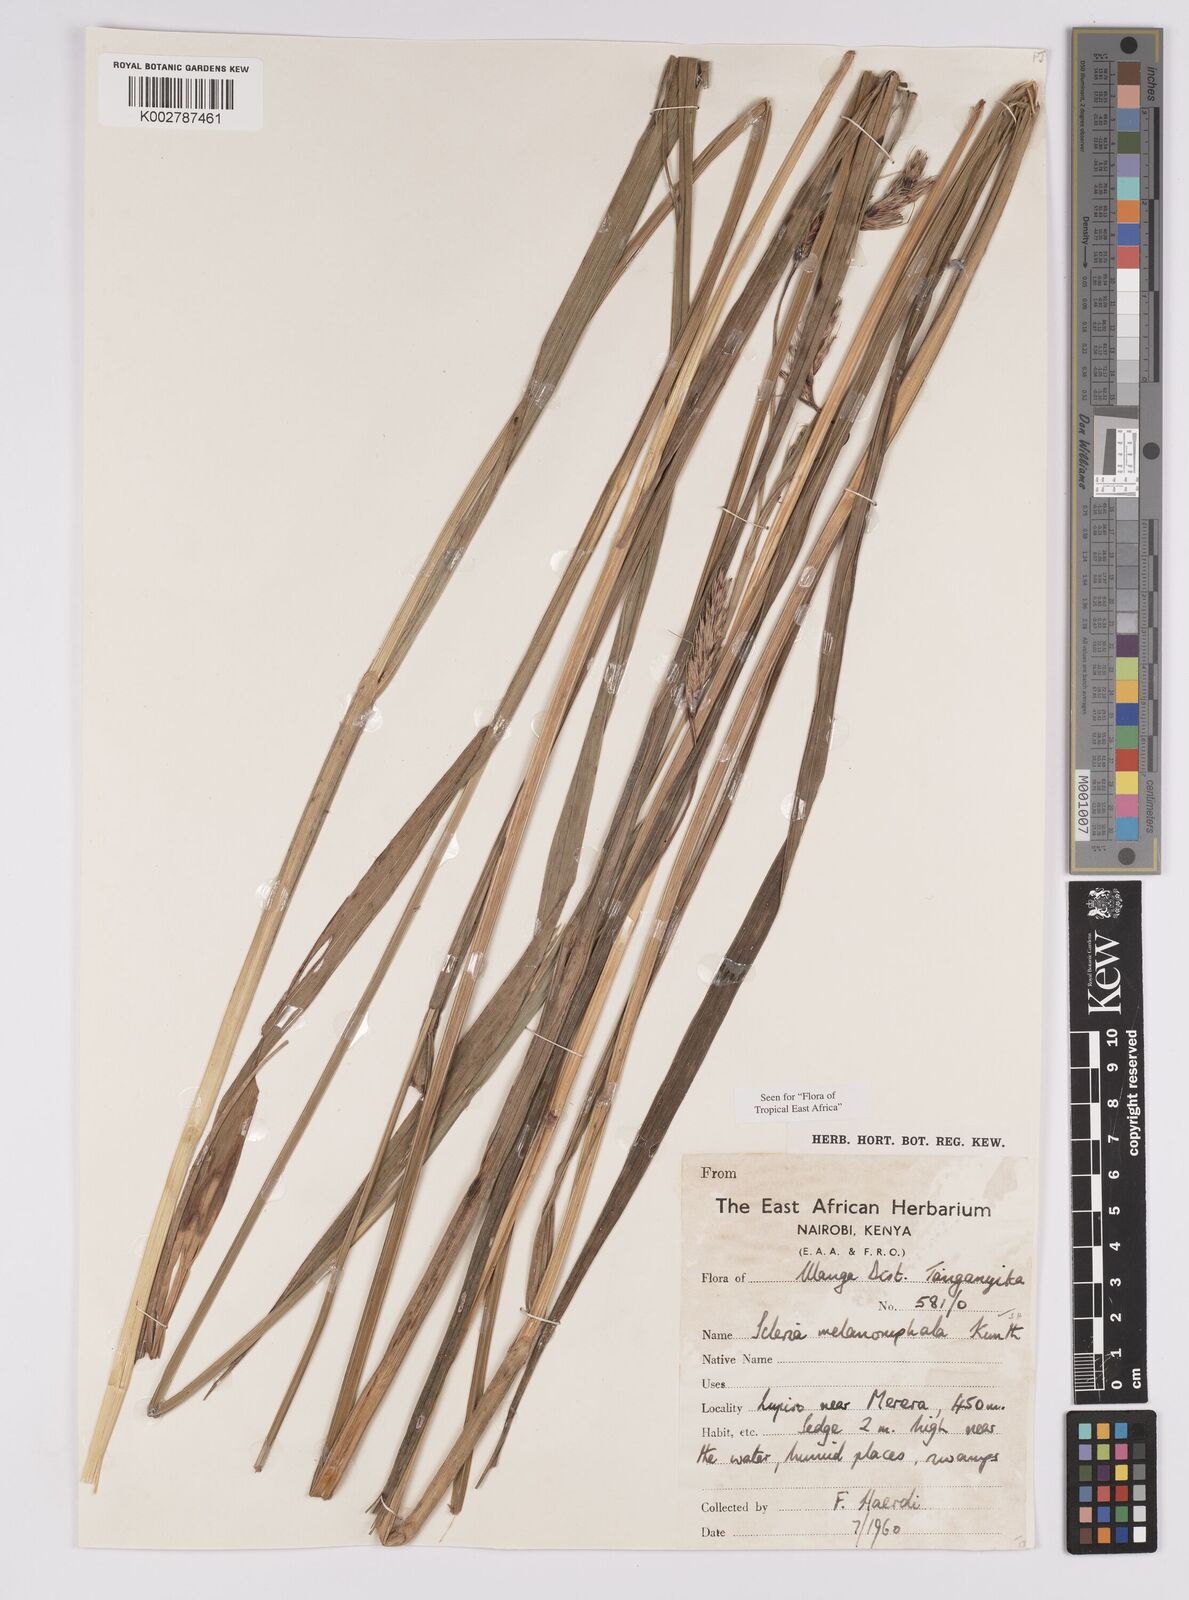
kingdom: Plantae
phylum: Tracheophyta
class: Liliopsida
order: Poales
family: Cyperaceae
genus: Scleria
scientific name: Scleria melanomphala
